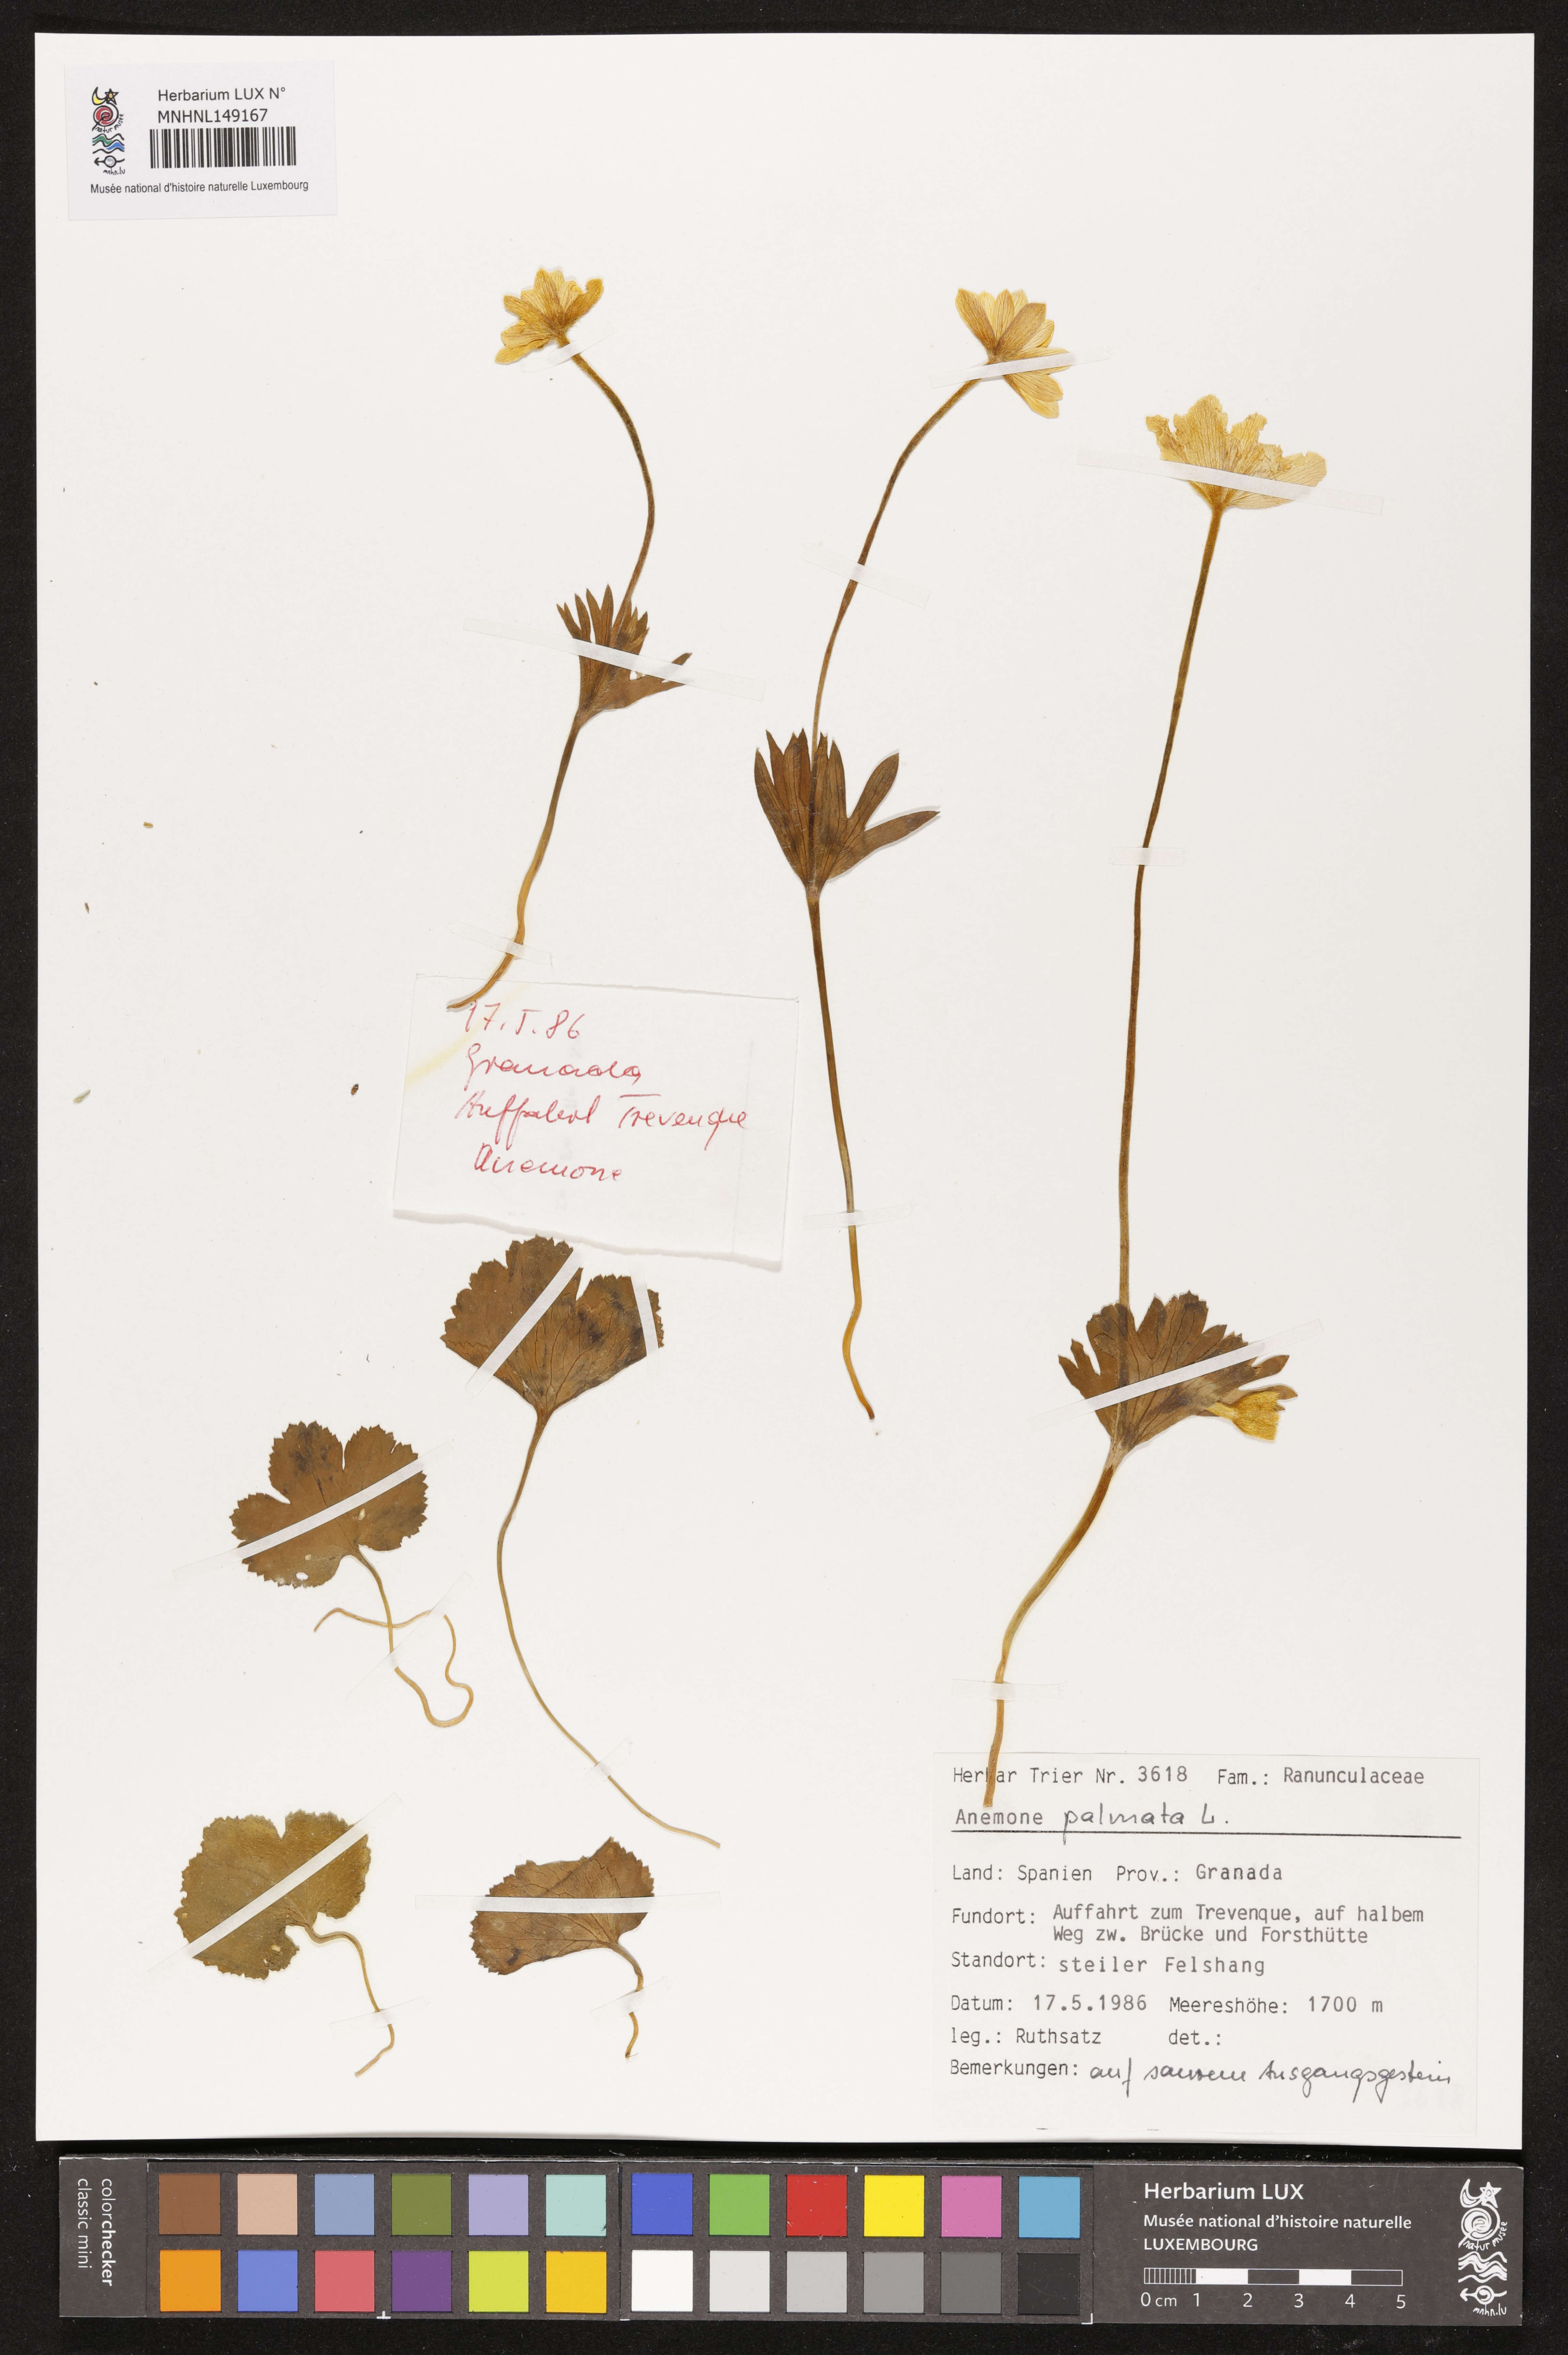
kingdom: Plantae
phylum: Tracheophyta
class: Magnoliopsida
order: Ranunculales
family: Ranunculaceae
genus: Anemone
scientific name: Anemone palmata
